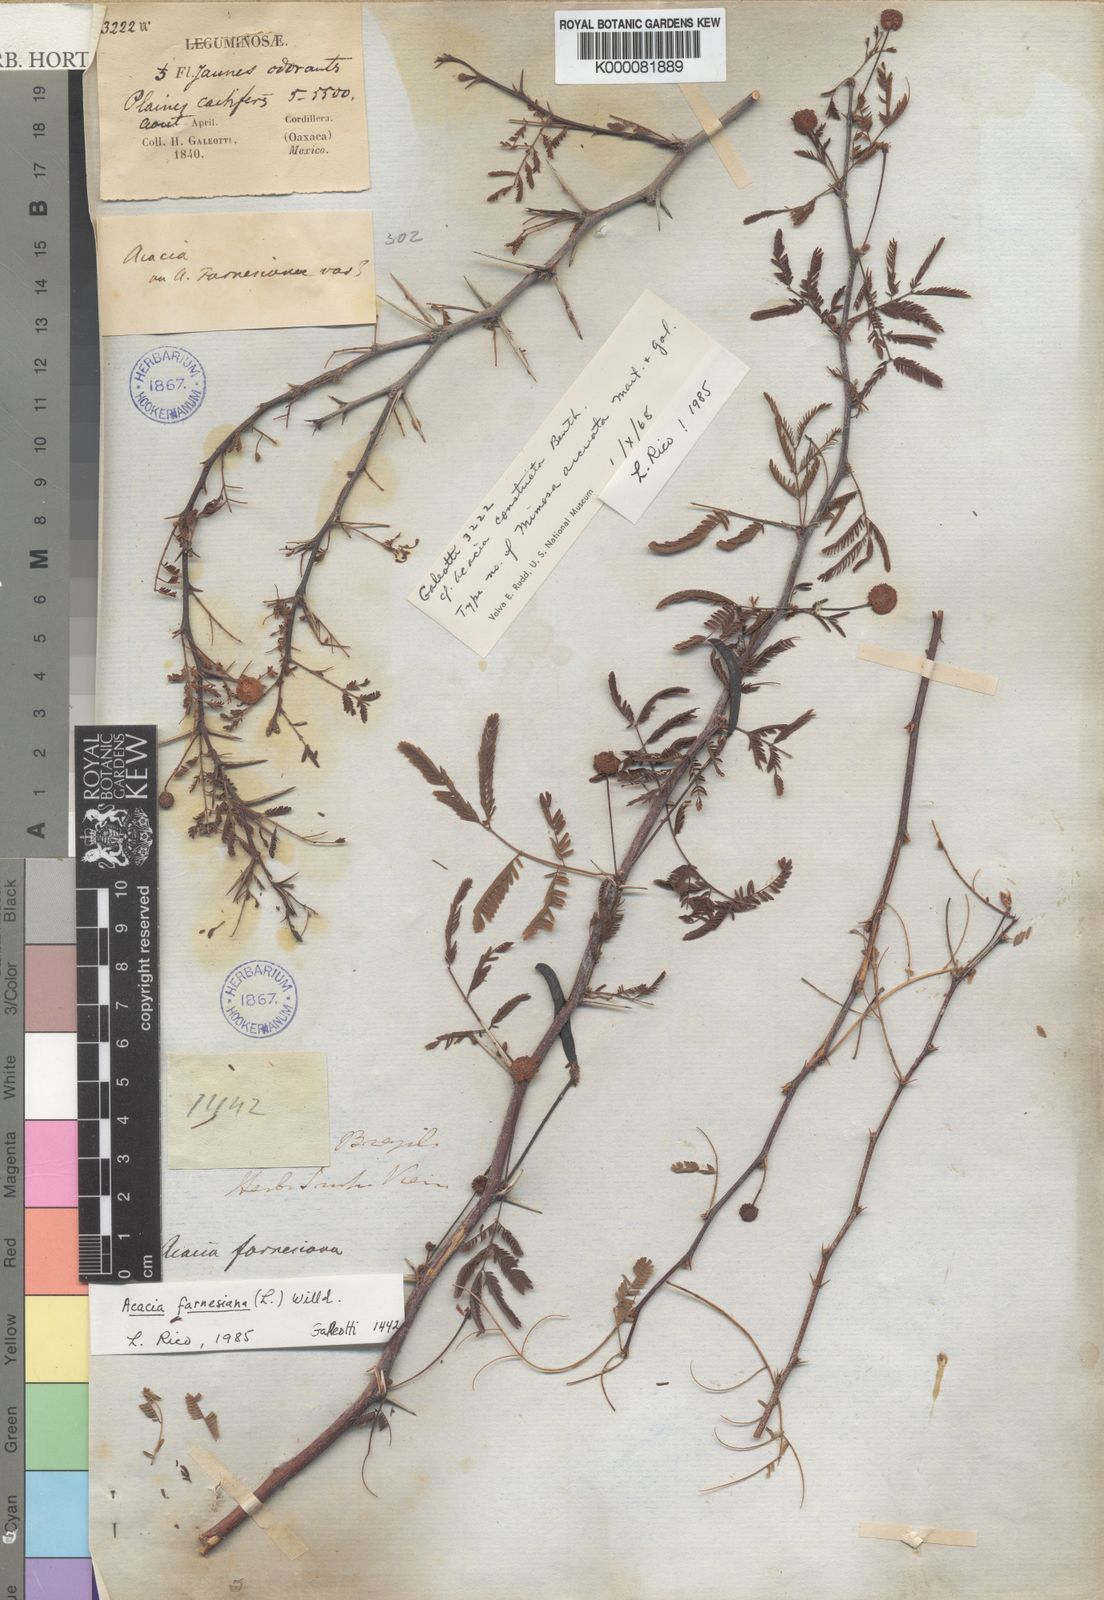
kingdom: Plantae
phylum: Tracheophyta
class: Magnoliopsida
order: Fabales
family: Fabaceae
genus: Acacia
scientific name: Acacia
